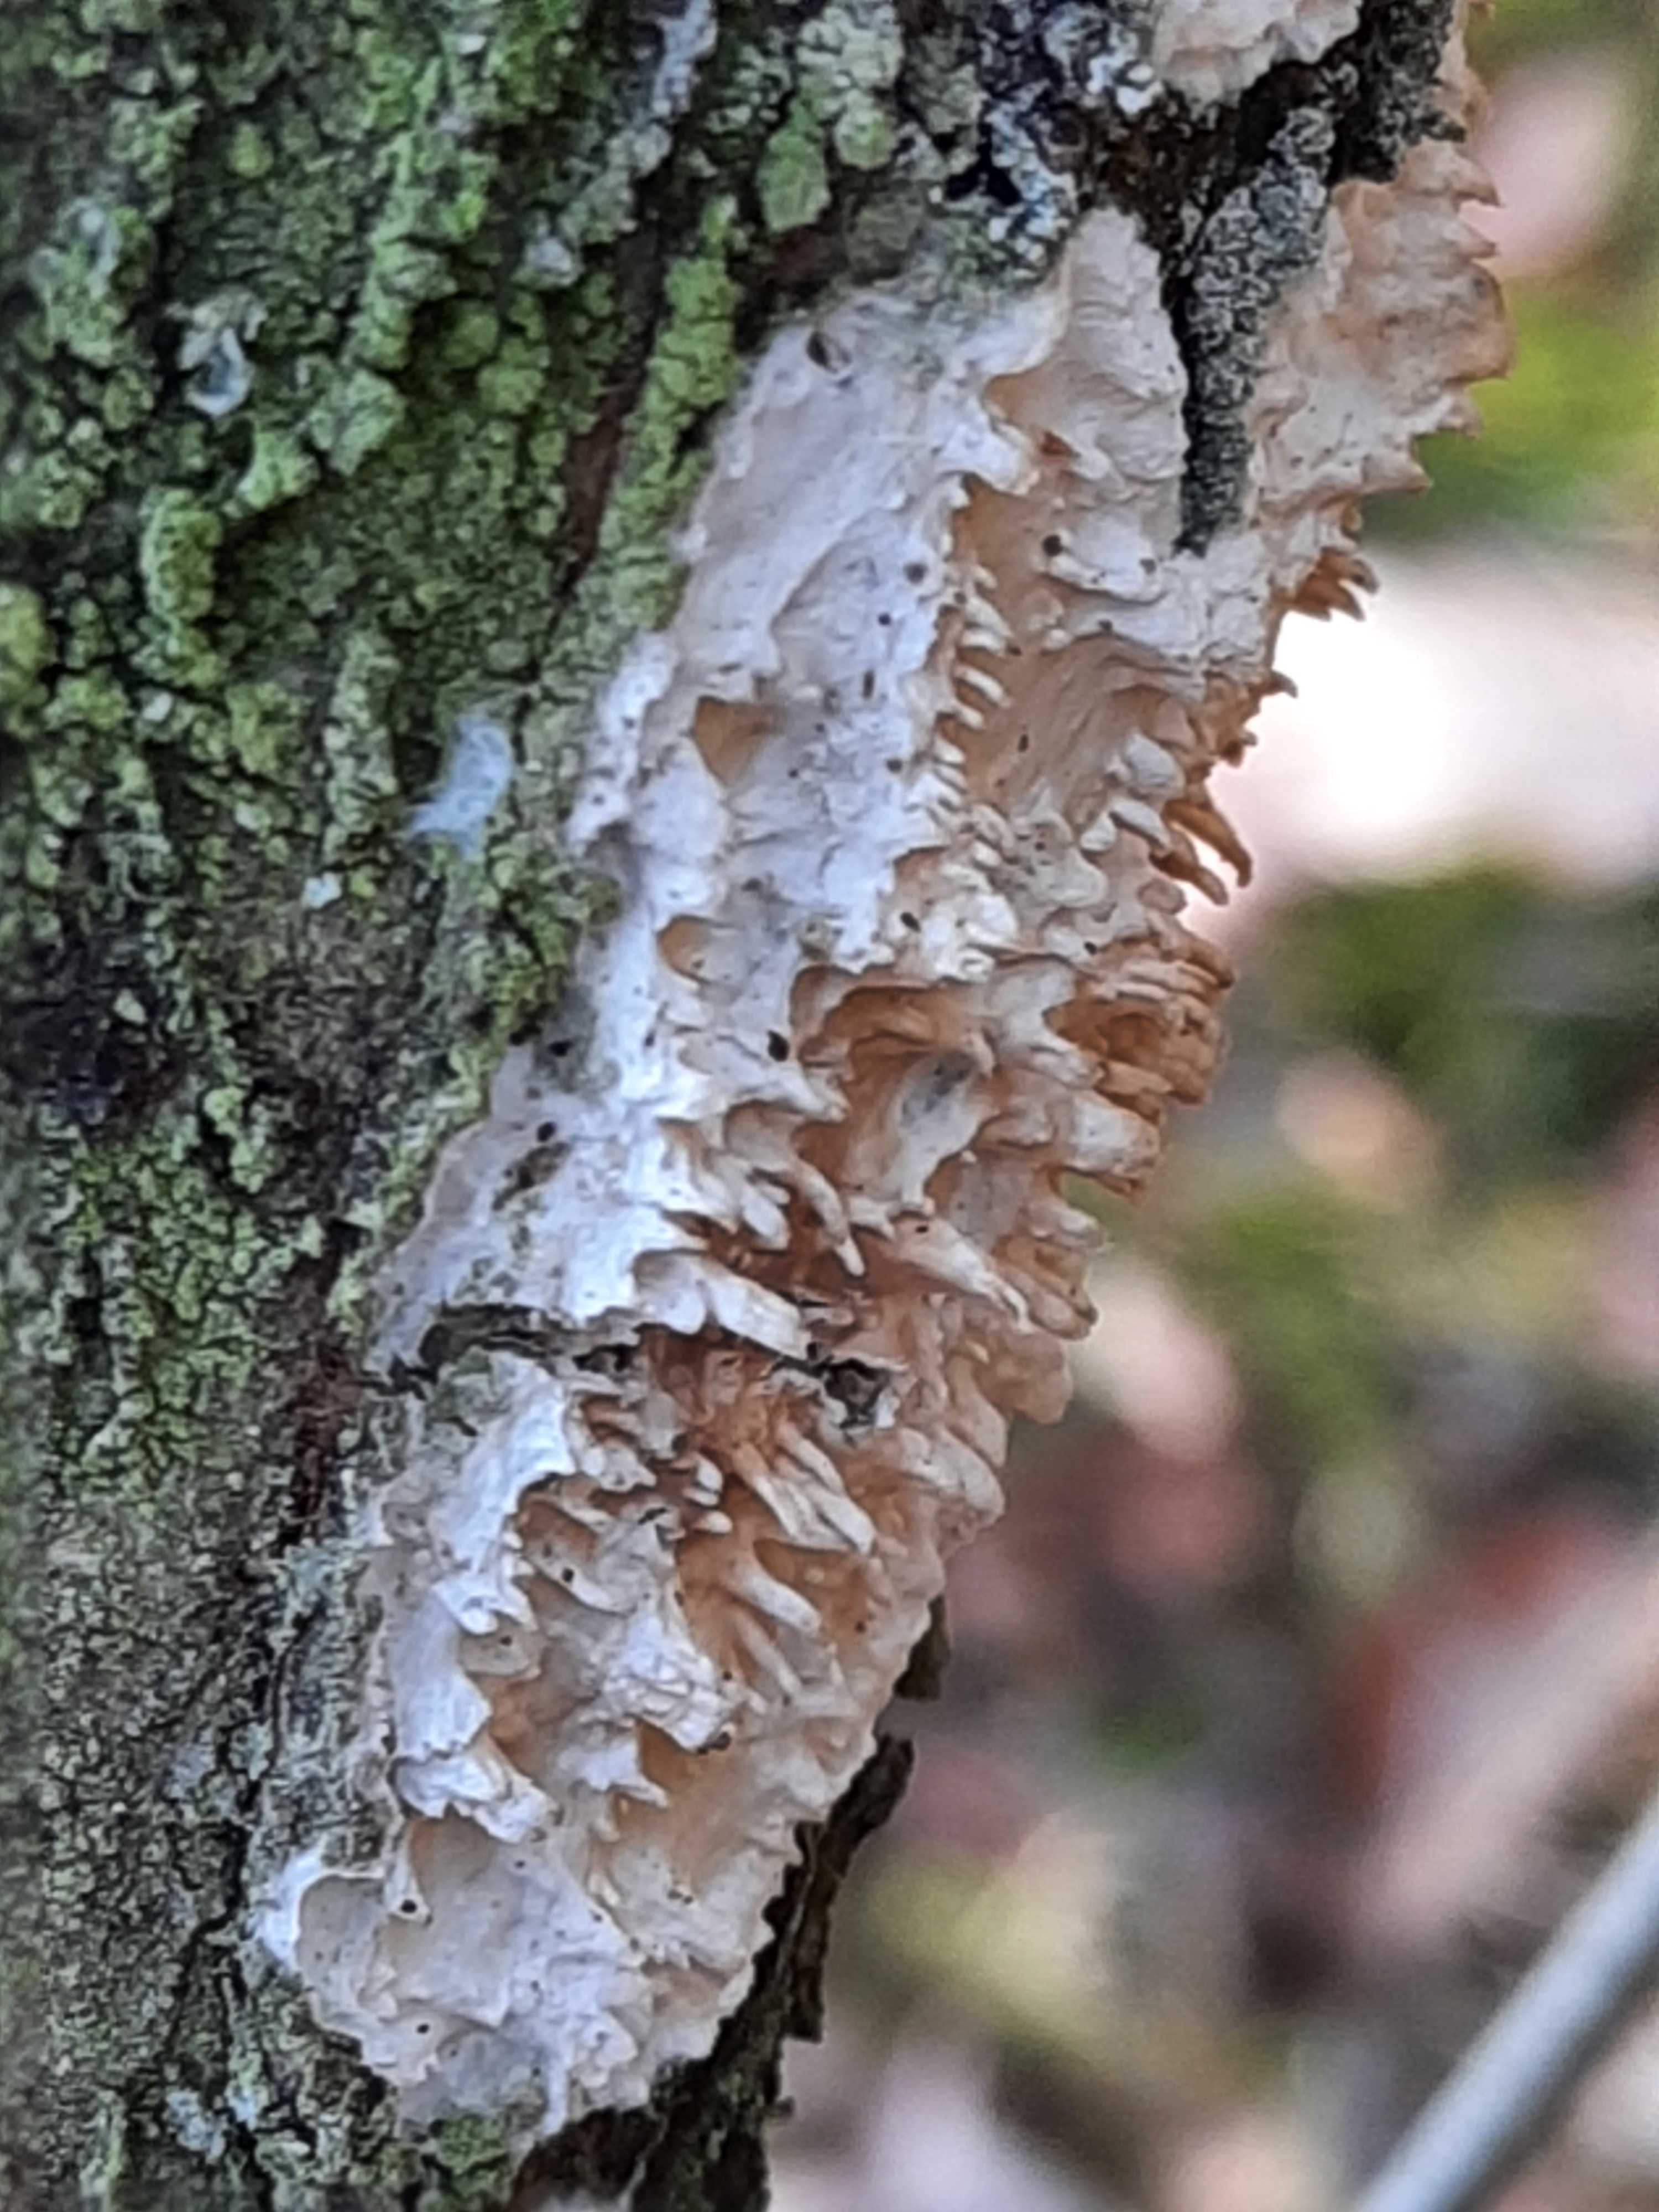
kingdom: Fungi
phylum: Basidiomycota
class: Agaricomycetes
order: Hymenochaetales
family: Schizoporaceae
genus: Xylodon
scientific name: Xylodon radula
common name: grovtandet kalkskind
